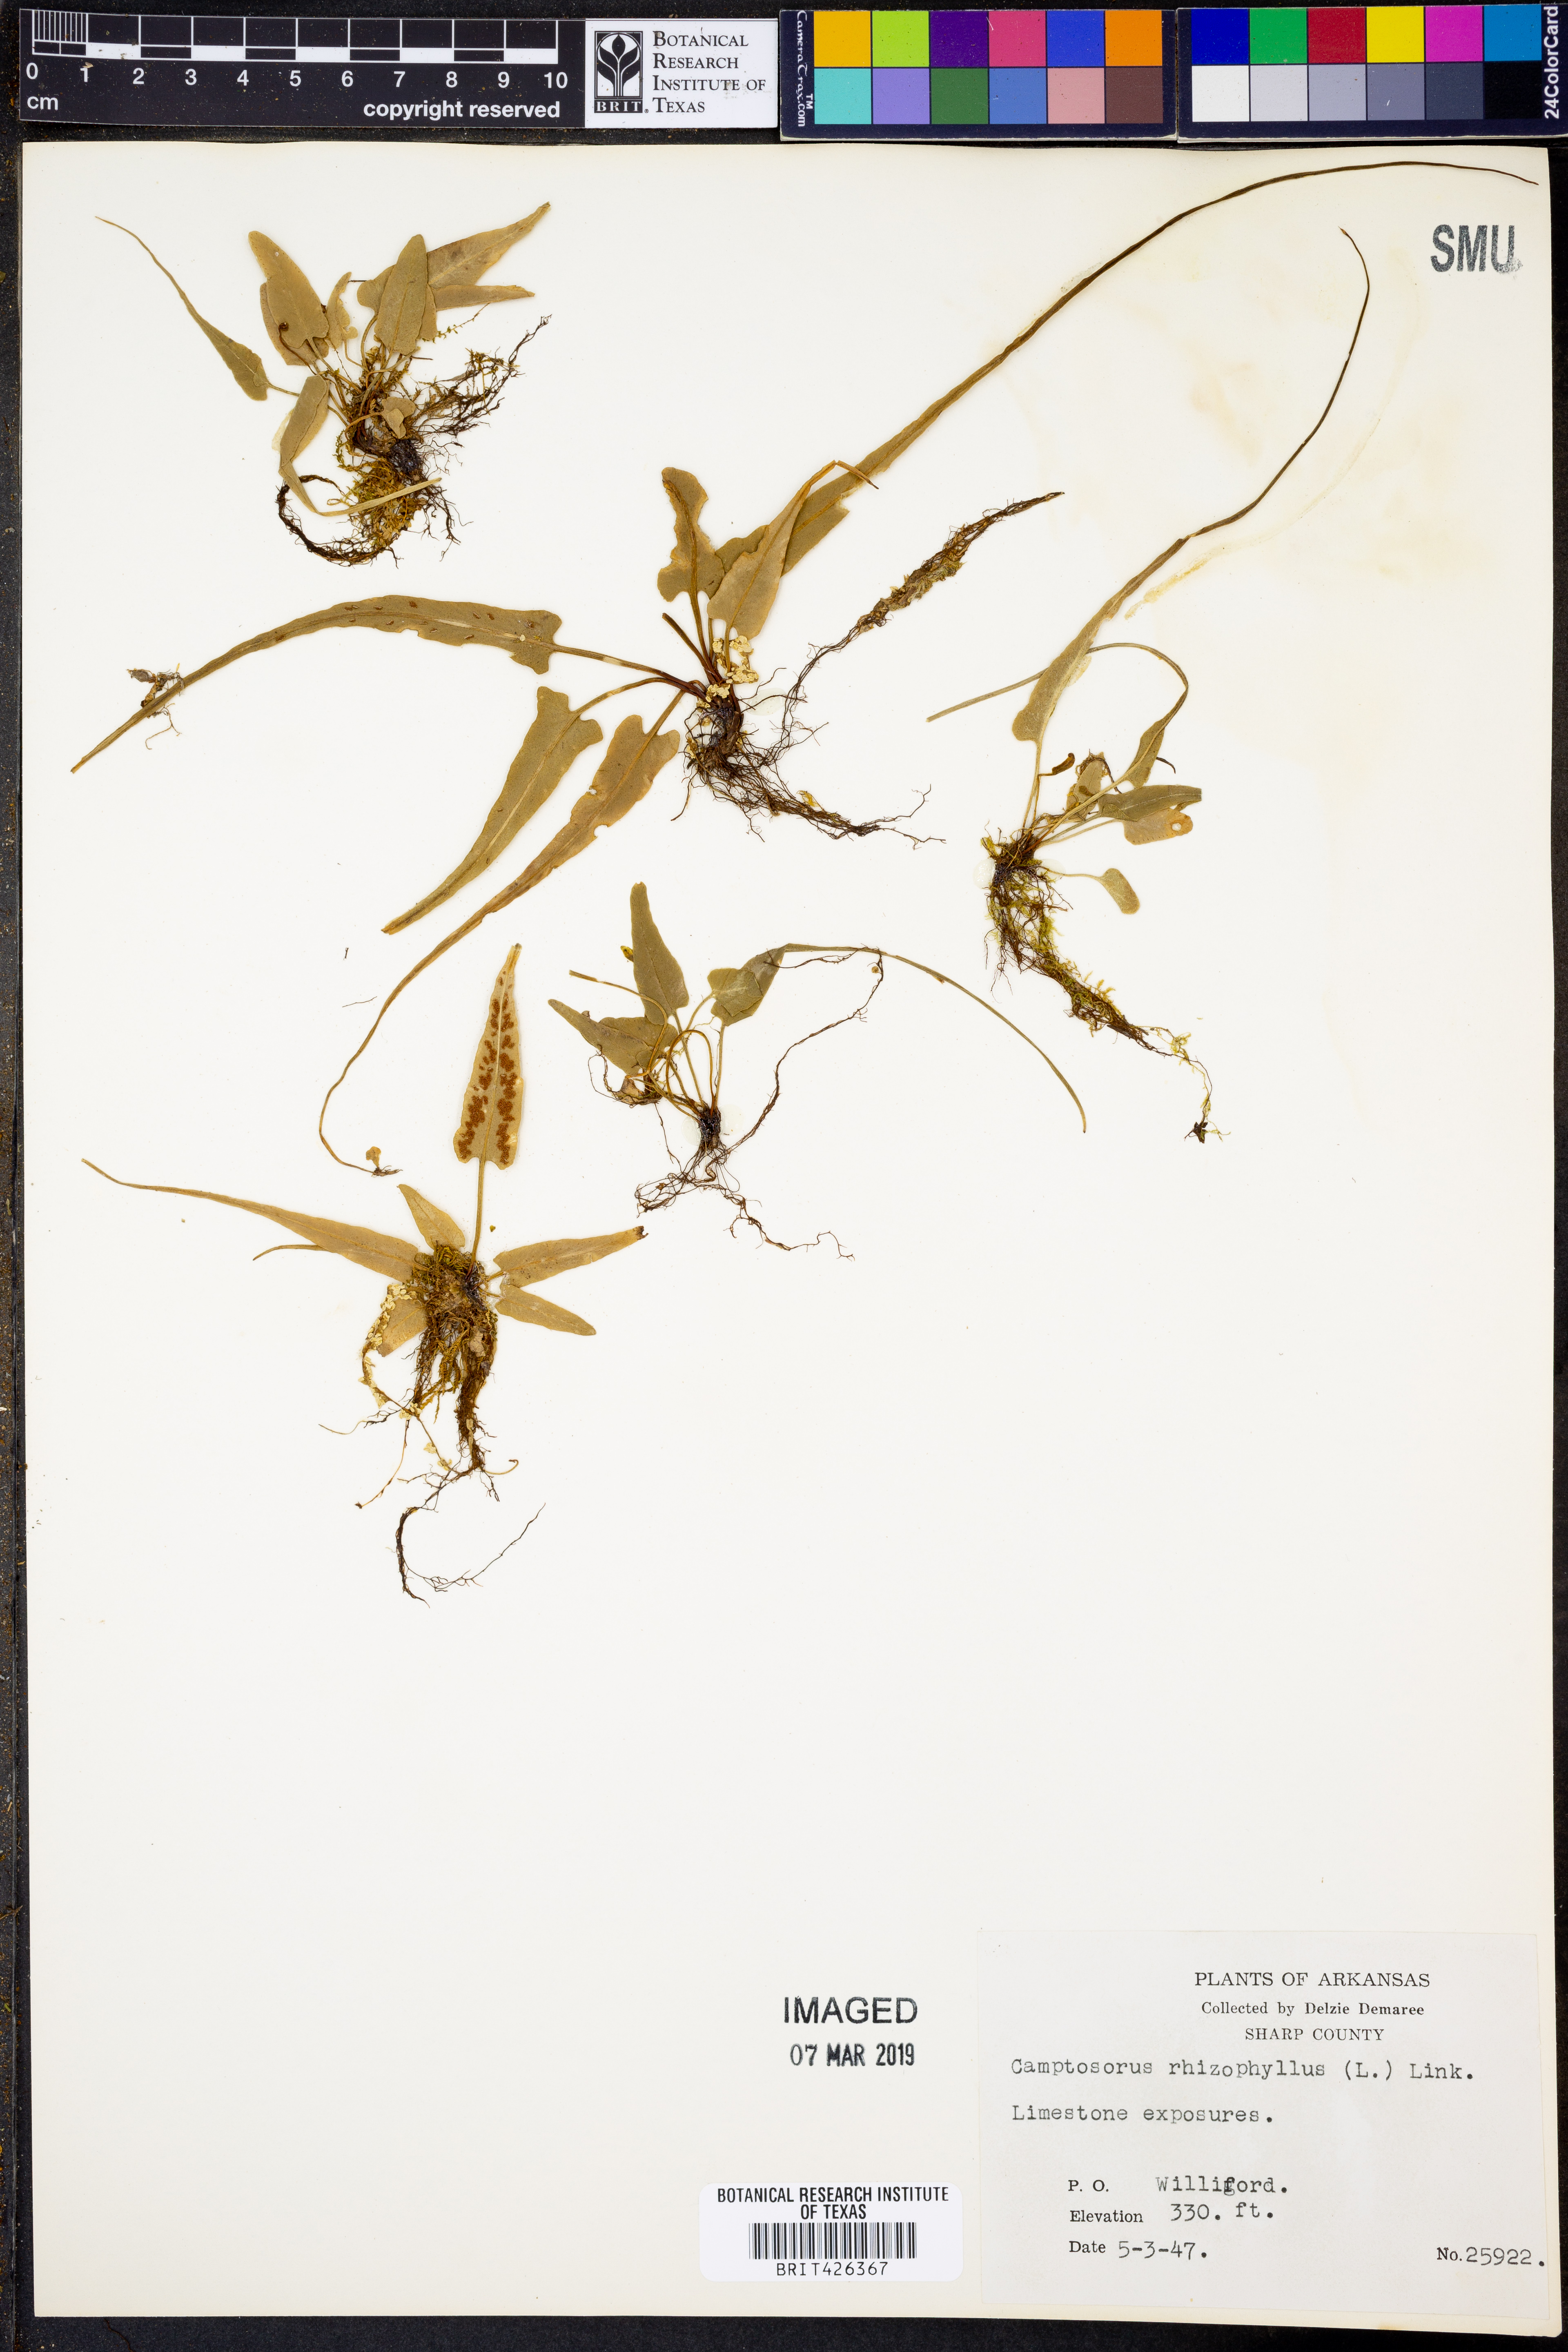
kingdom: Plantae
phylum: Tracheophyta
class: Polypodiopsida
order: Polypodiales
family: Aspleniaceae
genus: Asplenium
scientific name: Asplenium rhizophyllum
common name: Walking fern
